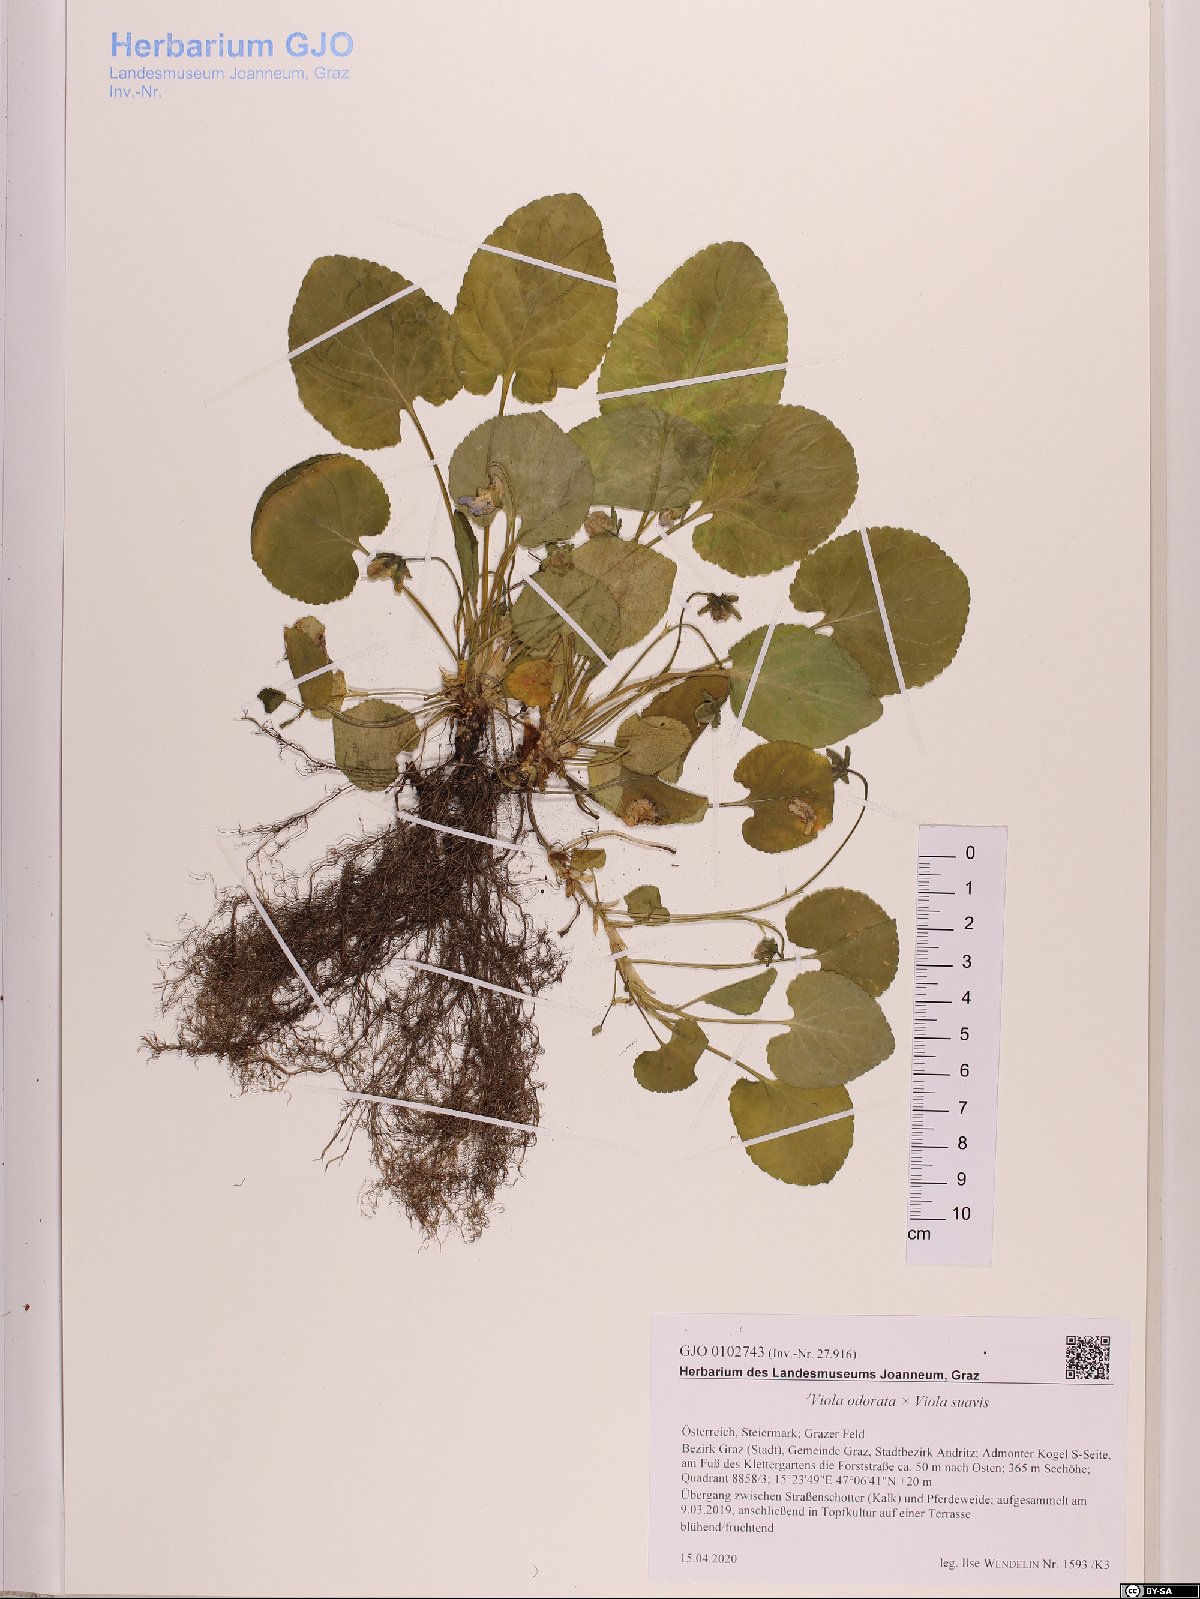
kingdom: Plantae
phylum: Tracheophyta
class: Magnoliopsida
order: Malpighiales
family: Violaceae
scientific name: Violaceae
